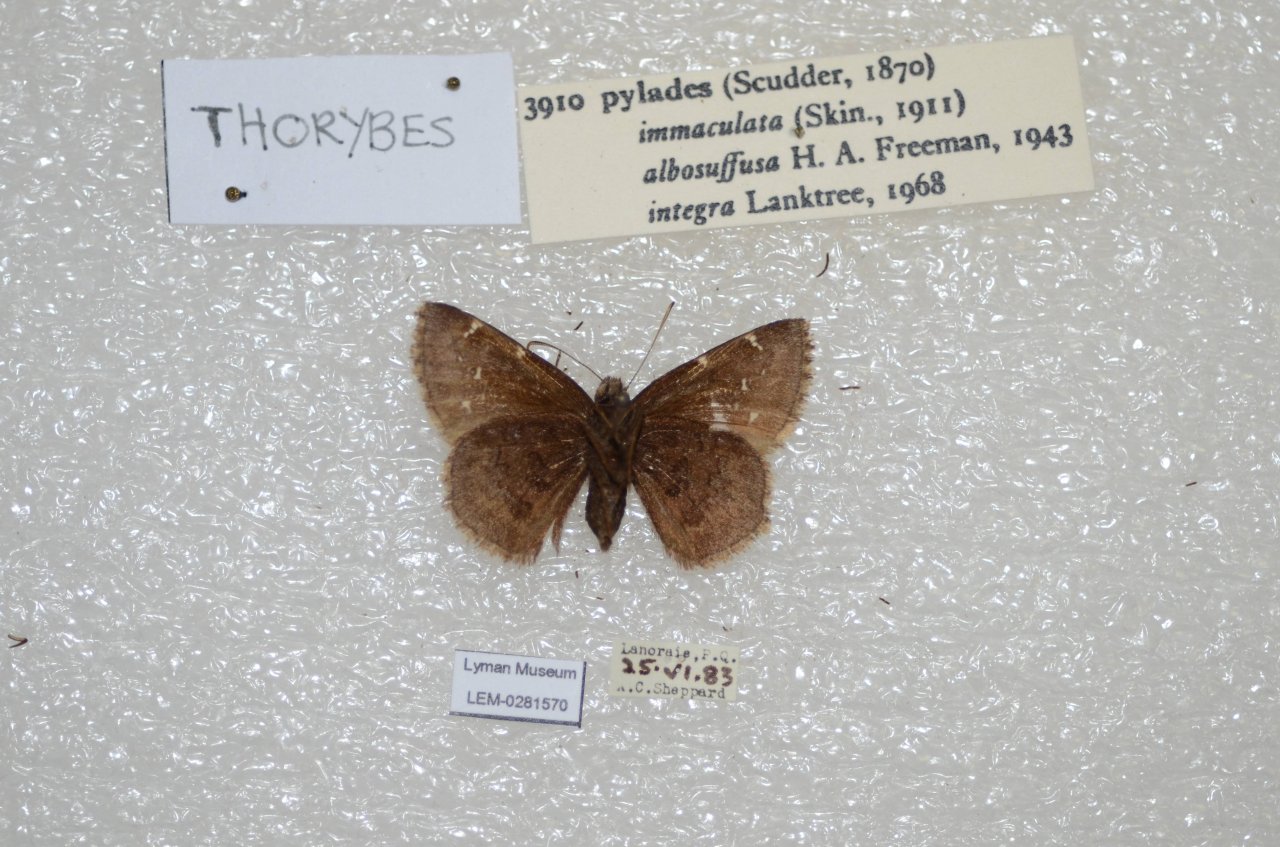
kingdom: Animalia
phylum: Arthropoda
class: Insecta
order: Lepidoptera
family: Hesperiidae
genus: Autochton
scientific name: Autochton
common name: Northern Cloudywing
